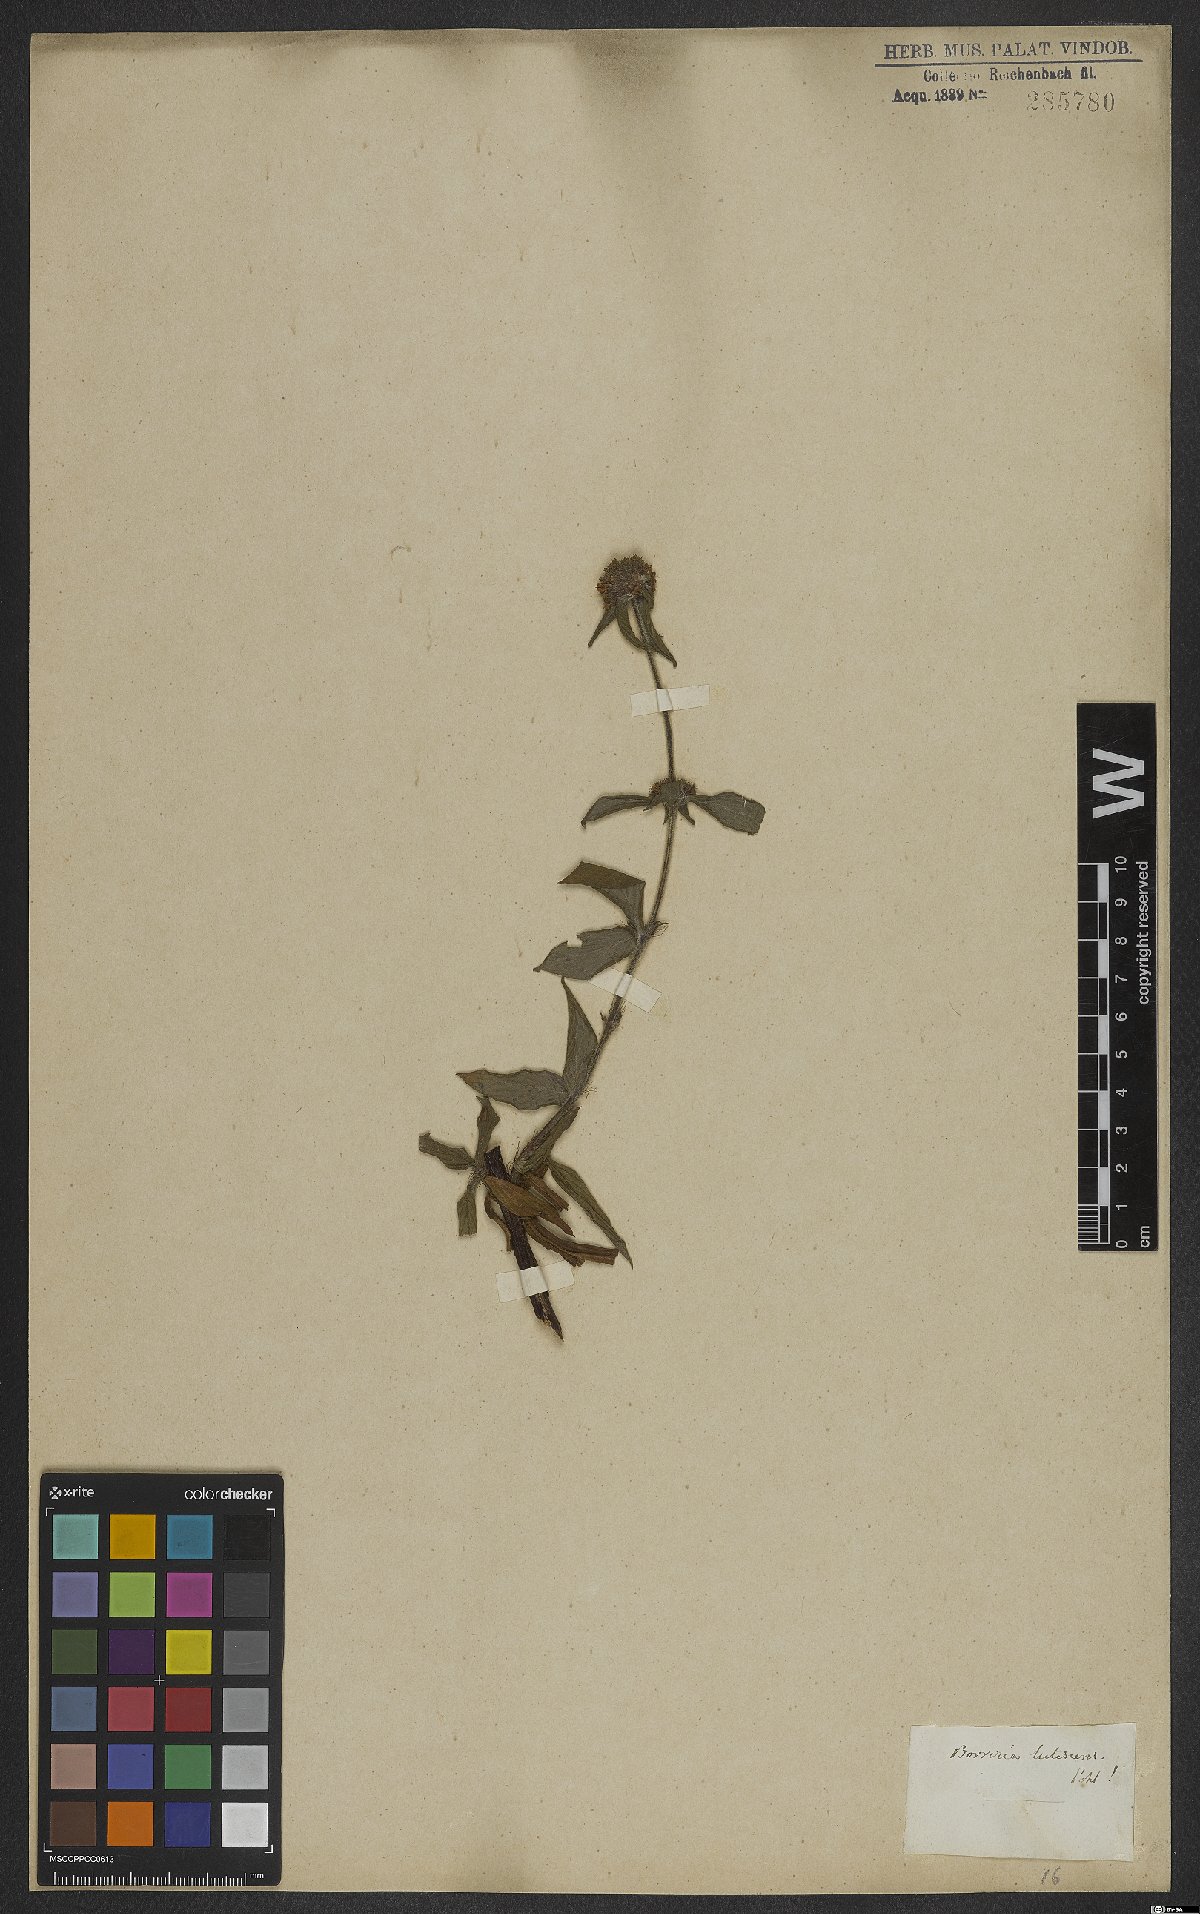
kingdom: Plantae
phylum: Tracheophyta
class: Magnoliopsida
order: Gentianales
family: Rubiaceae
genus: Spermacoce
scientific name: Spermacoce capitata
